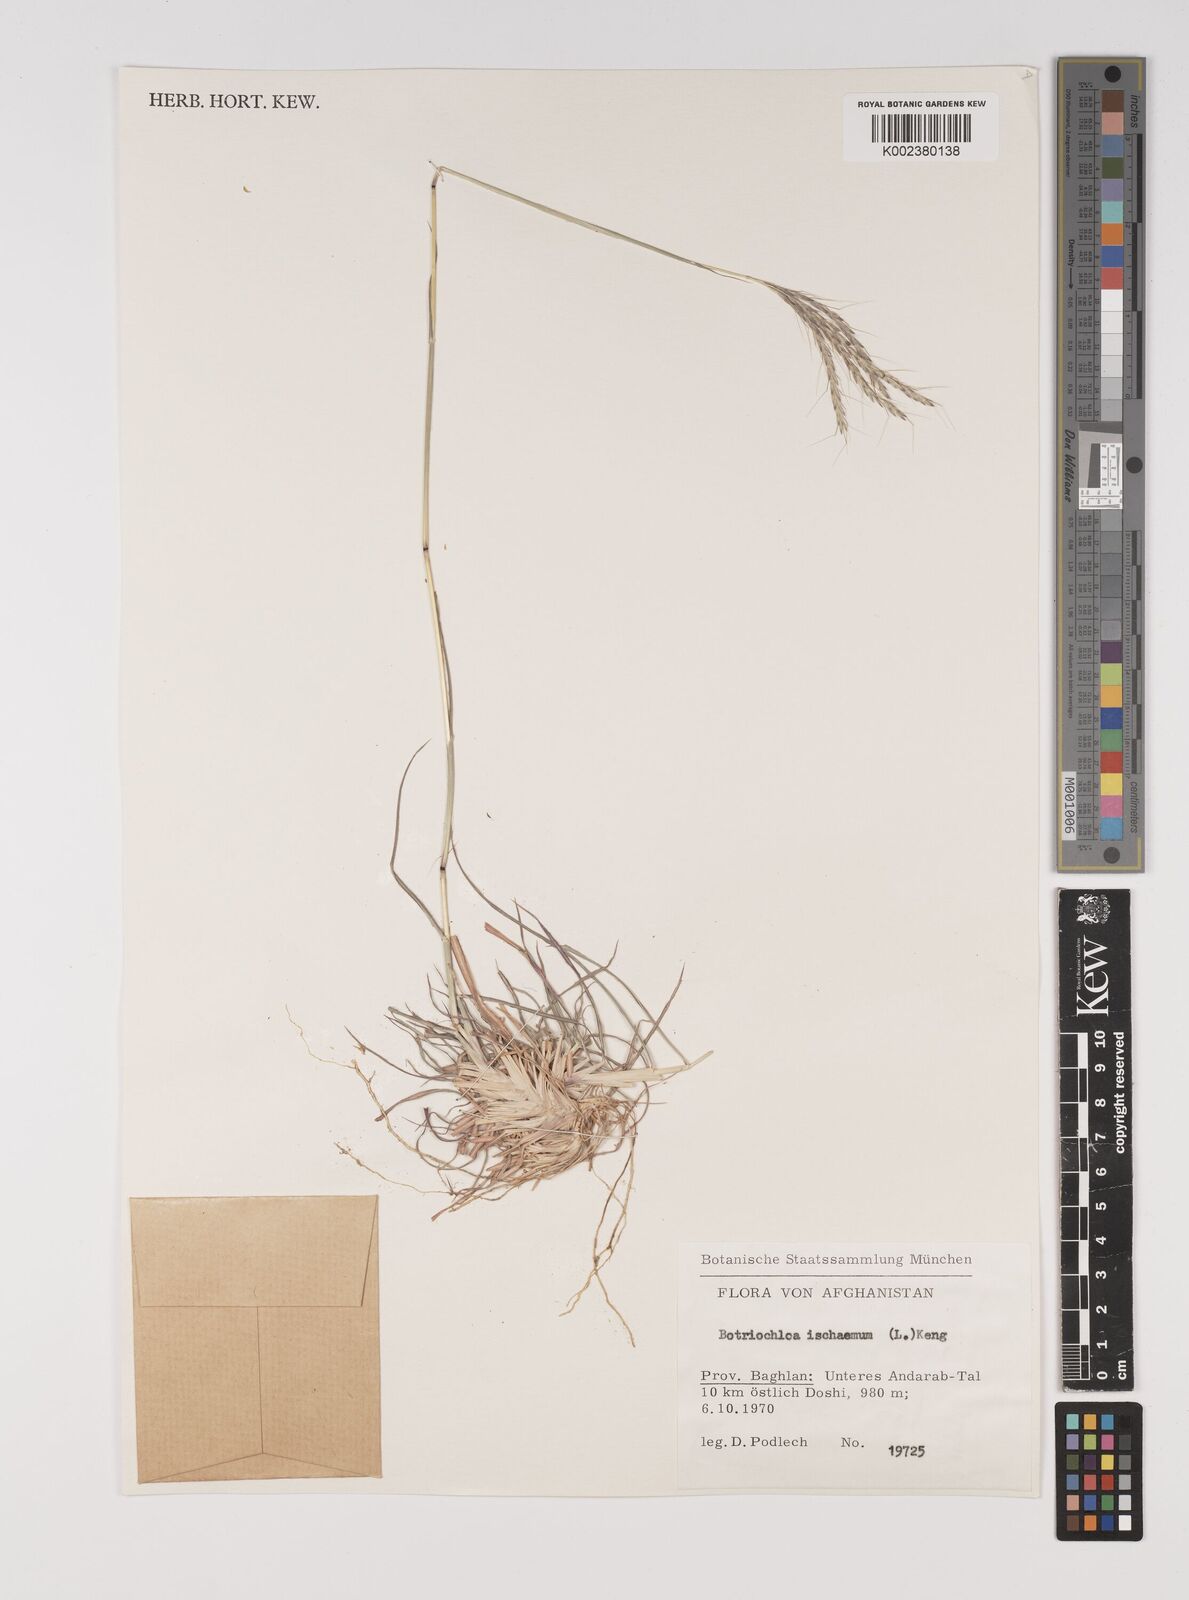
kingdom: Plantae
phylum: Tracheophyta
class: Liliopsida
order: Poales
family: Poaceae
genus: Bothriochloa
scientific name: Bothriochloa ischaemum
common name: Yellow bluestem
